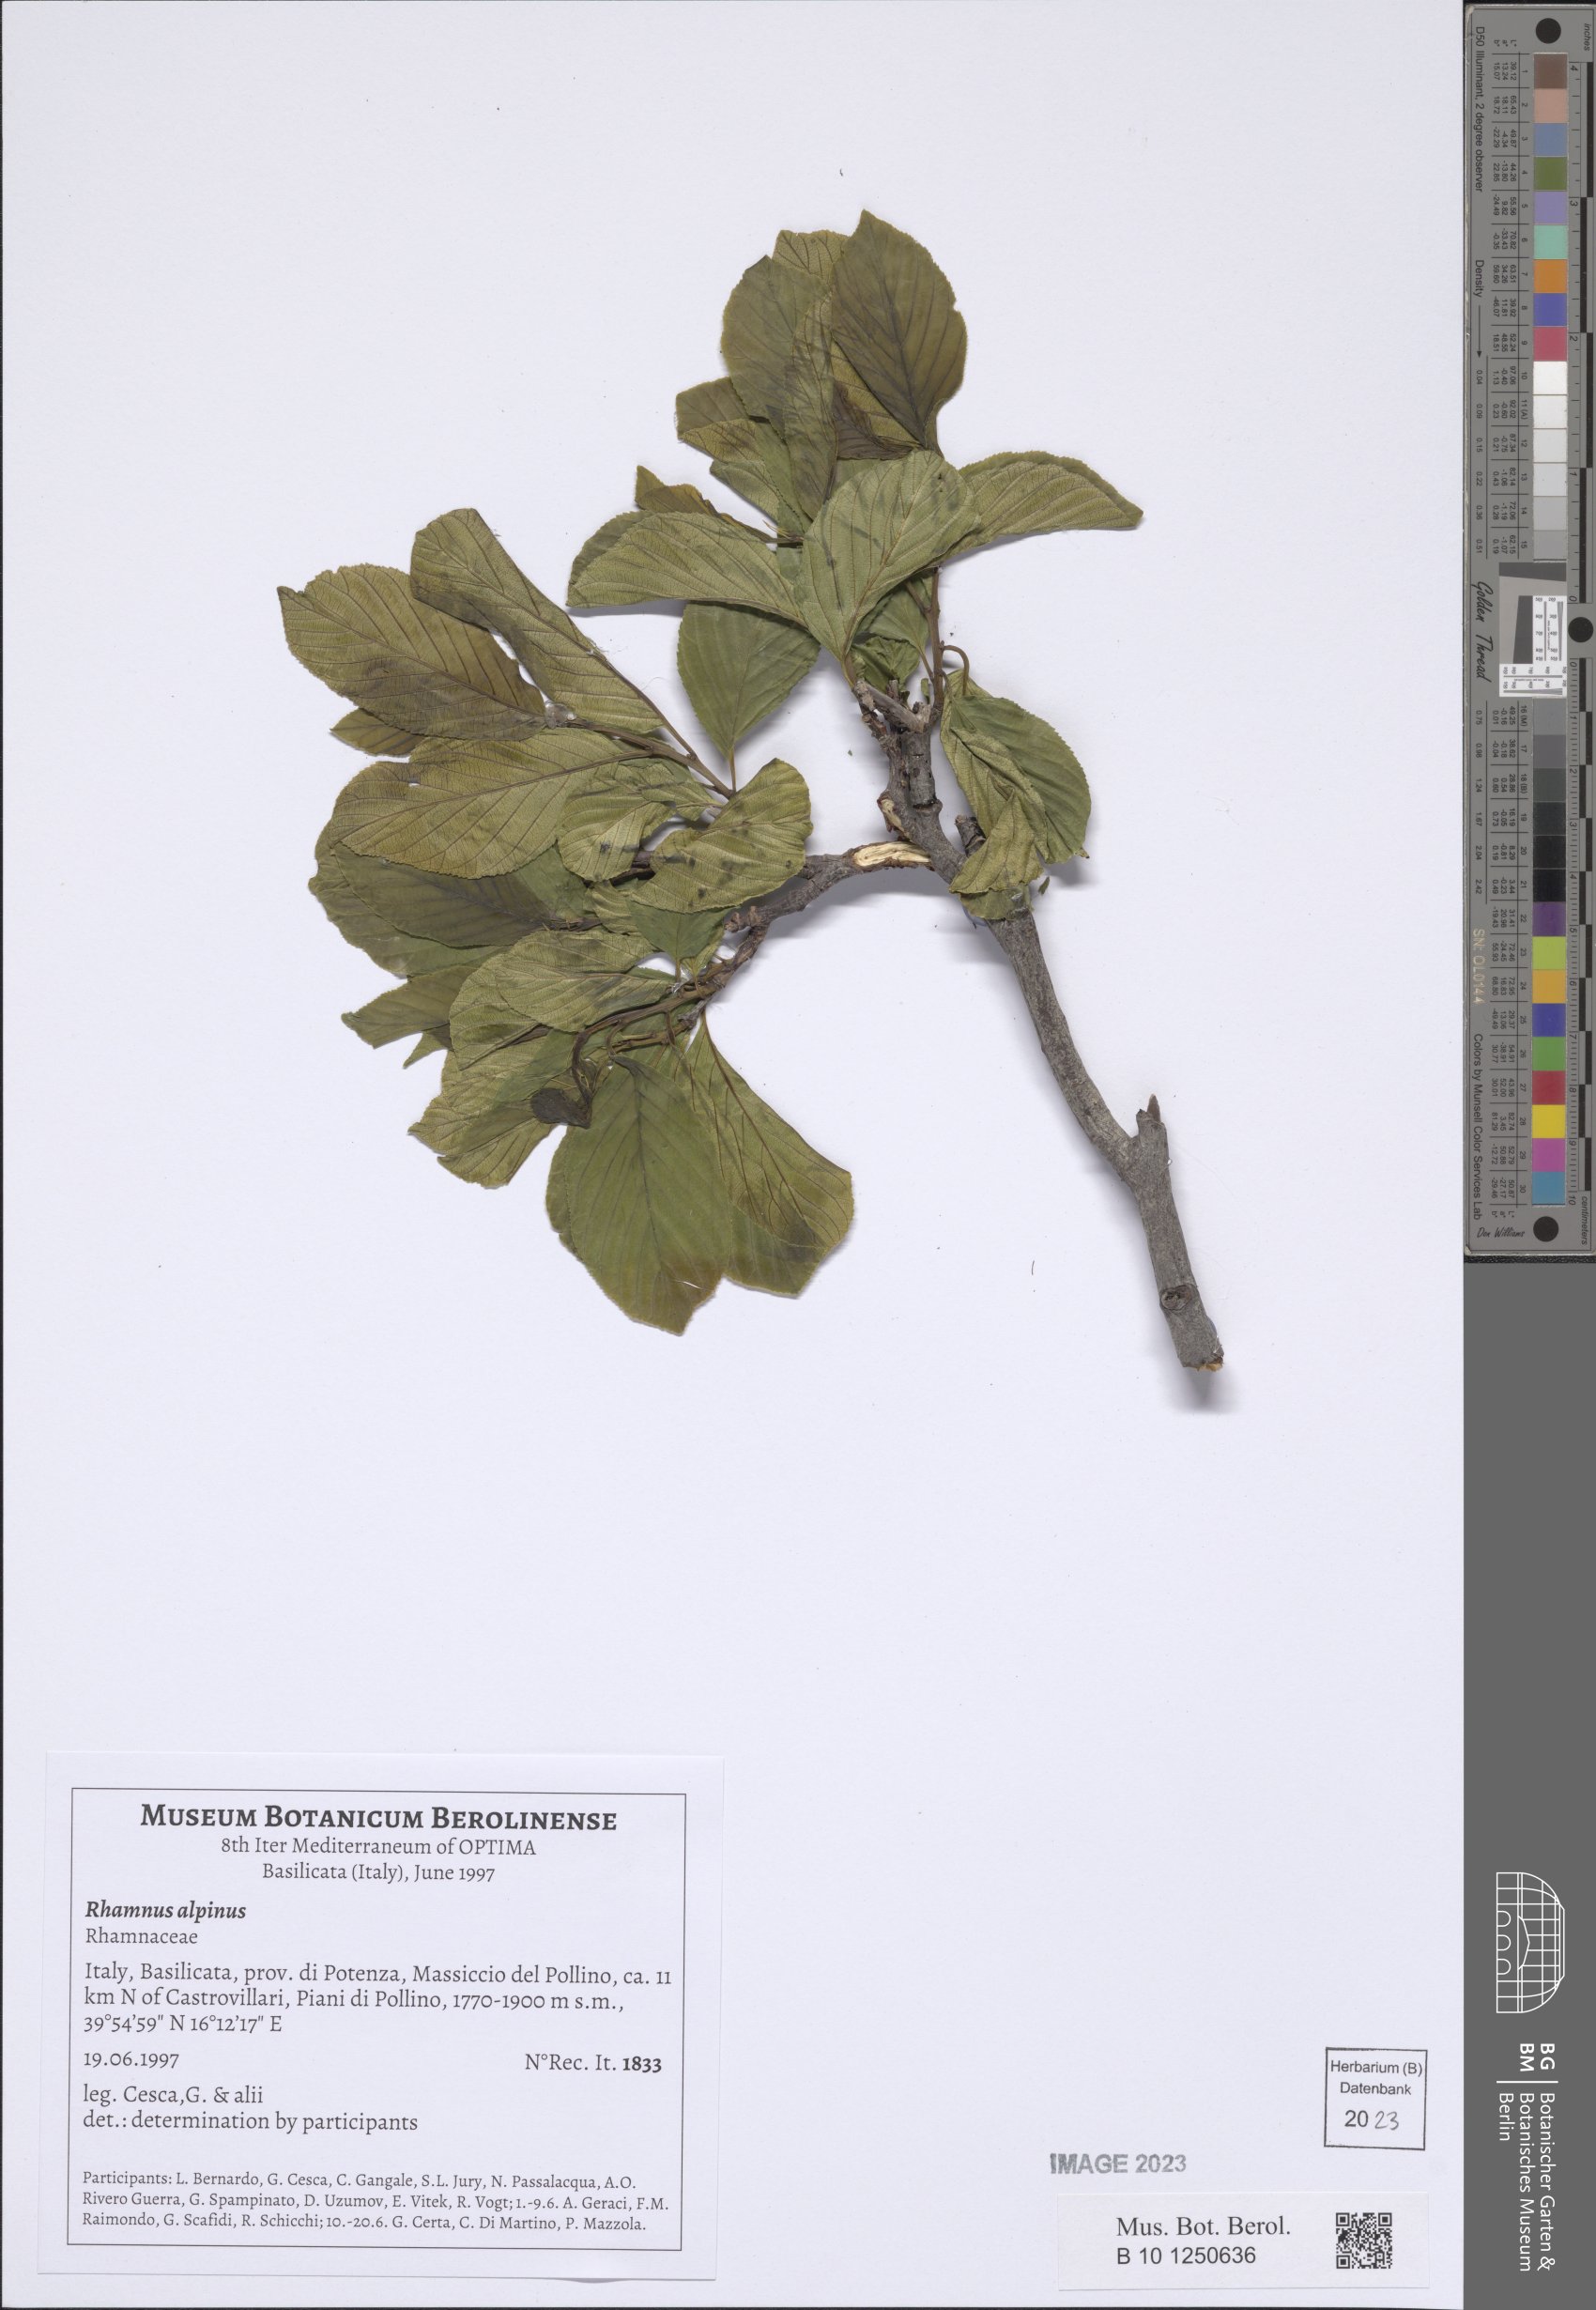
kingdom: Plantae
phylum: Tracheophyta
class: Magnoliopsida
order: Rosales
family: Rhamnaceae
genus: Atadinus
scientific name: Atadinus alpinus
